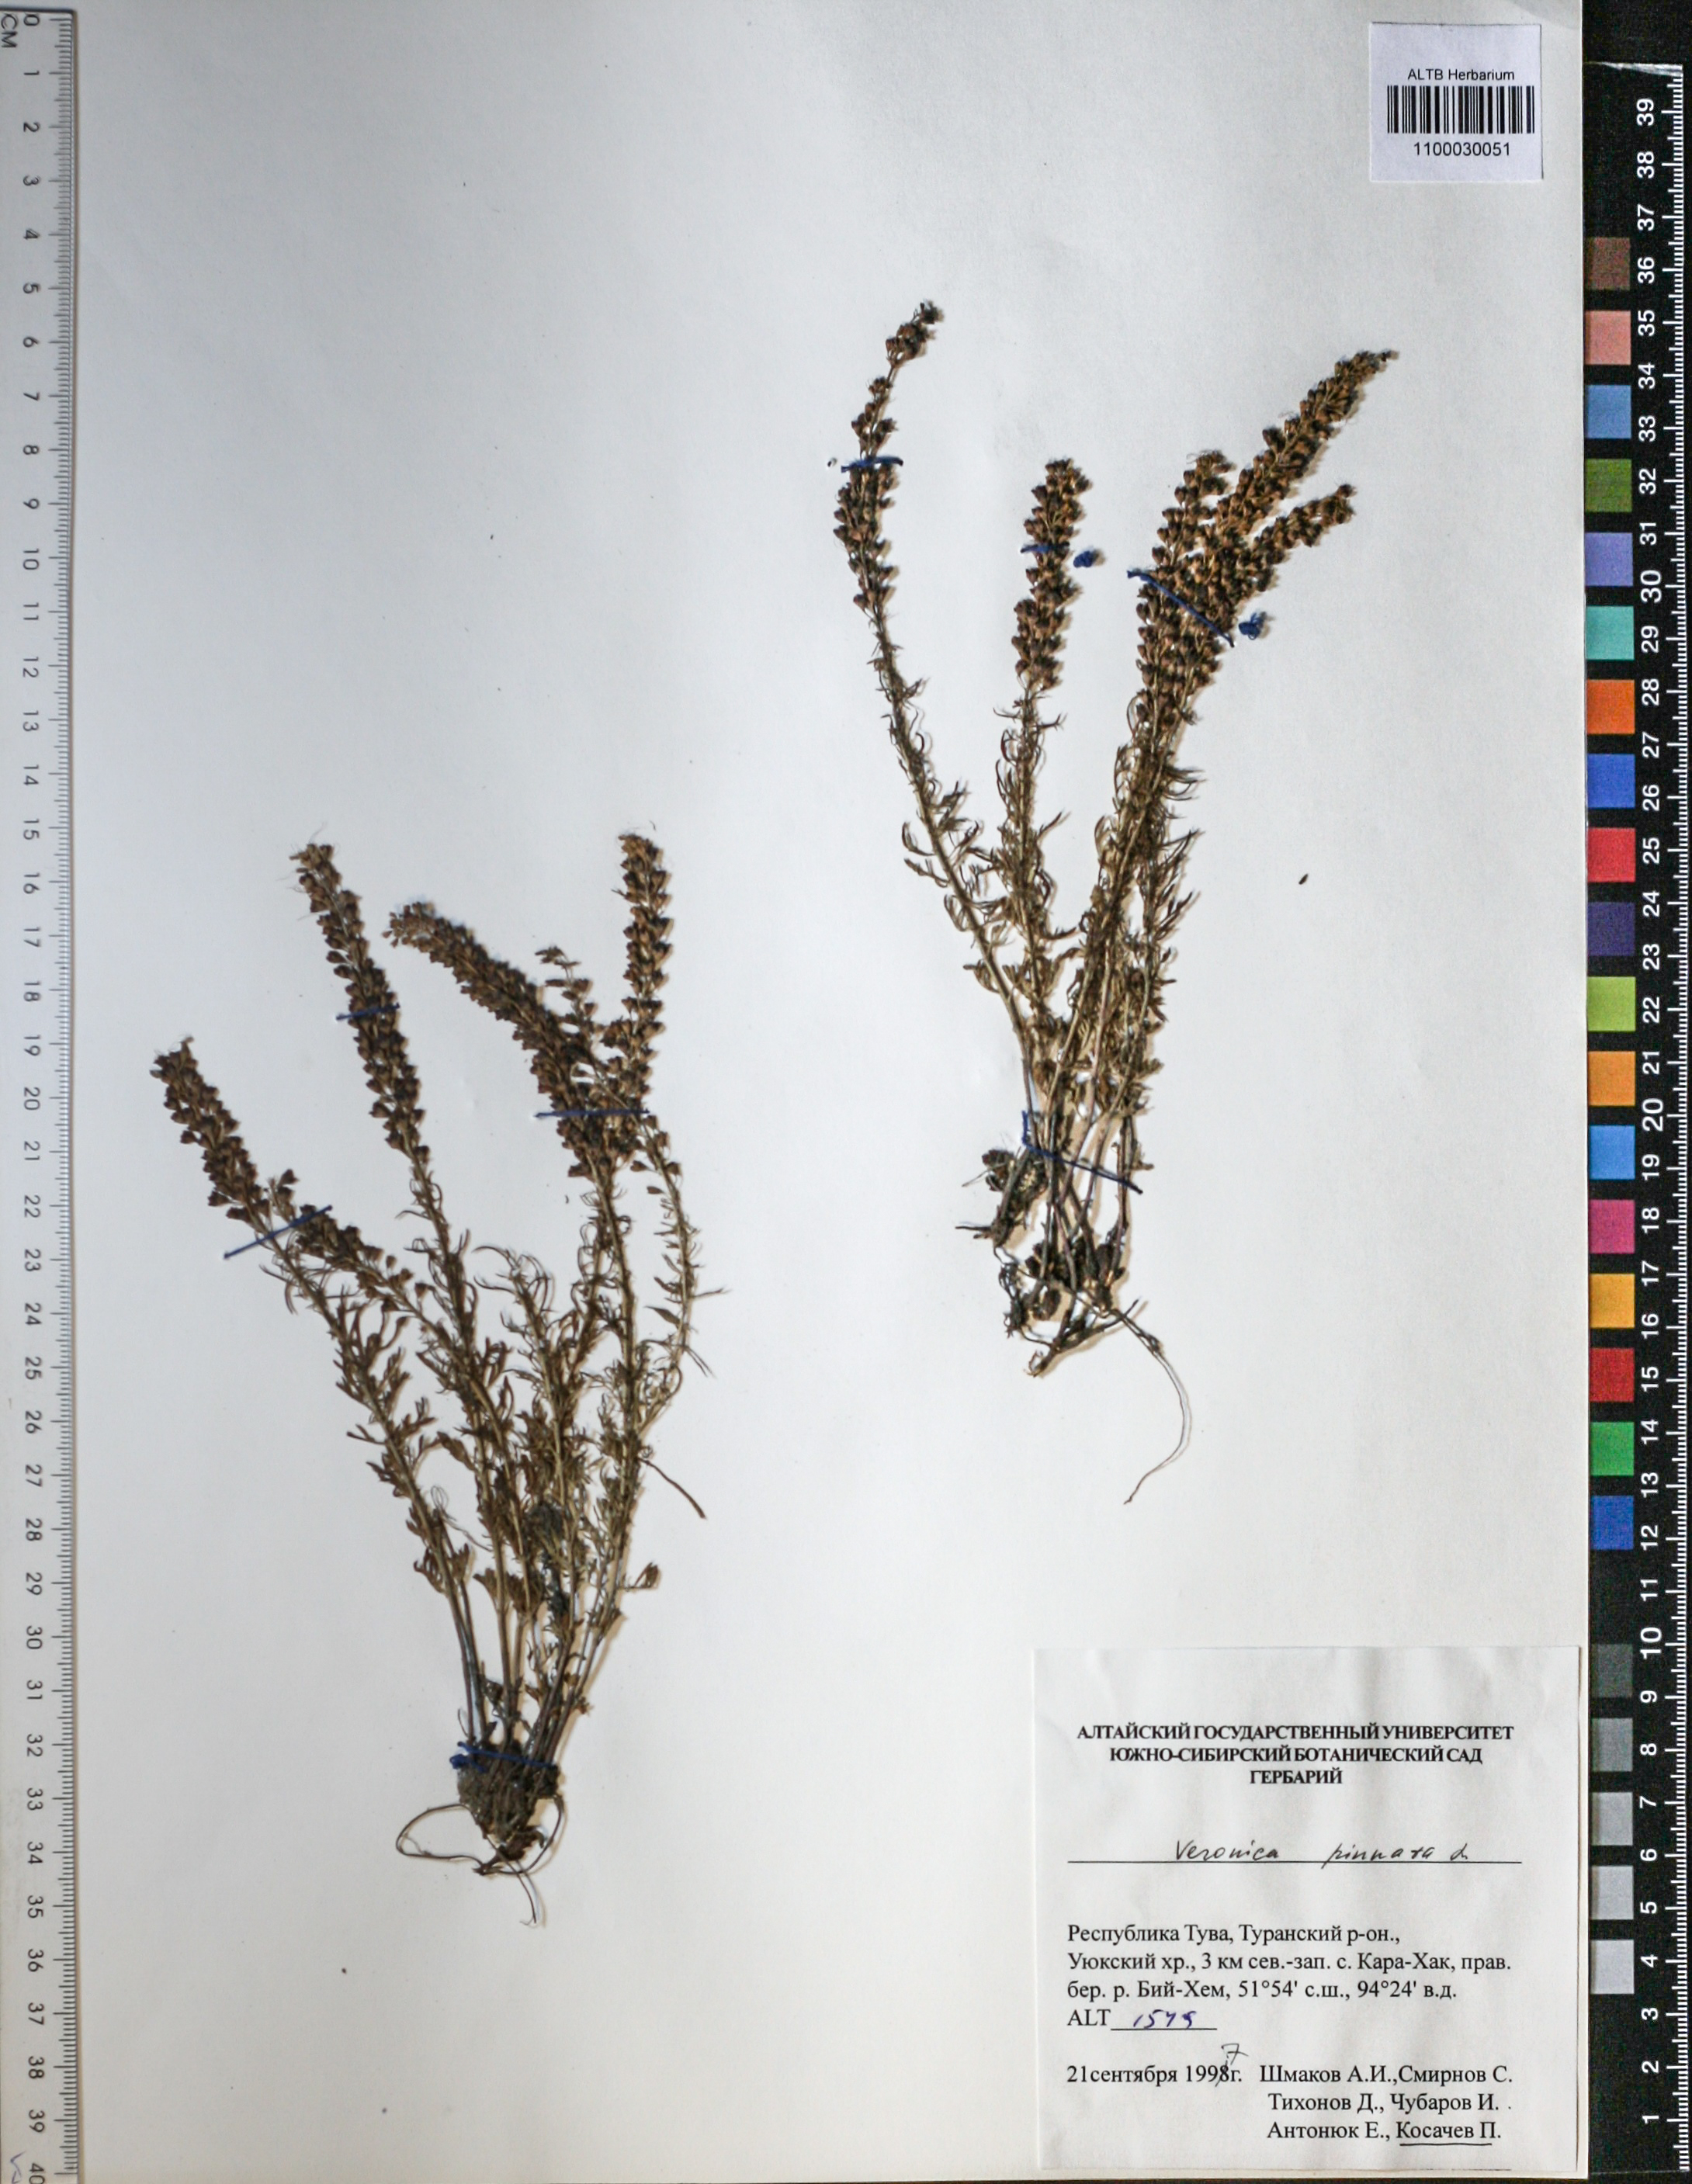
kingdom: Plantae
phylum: Tracheophyta
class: Magnoliopsida
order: Lamiales
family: Plantaginaceae
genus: Veronica
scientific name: Veronica pinnata
